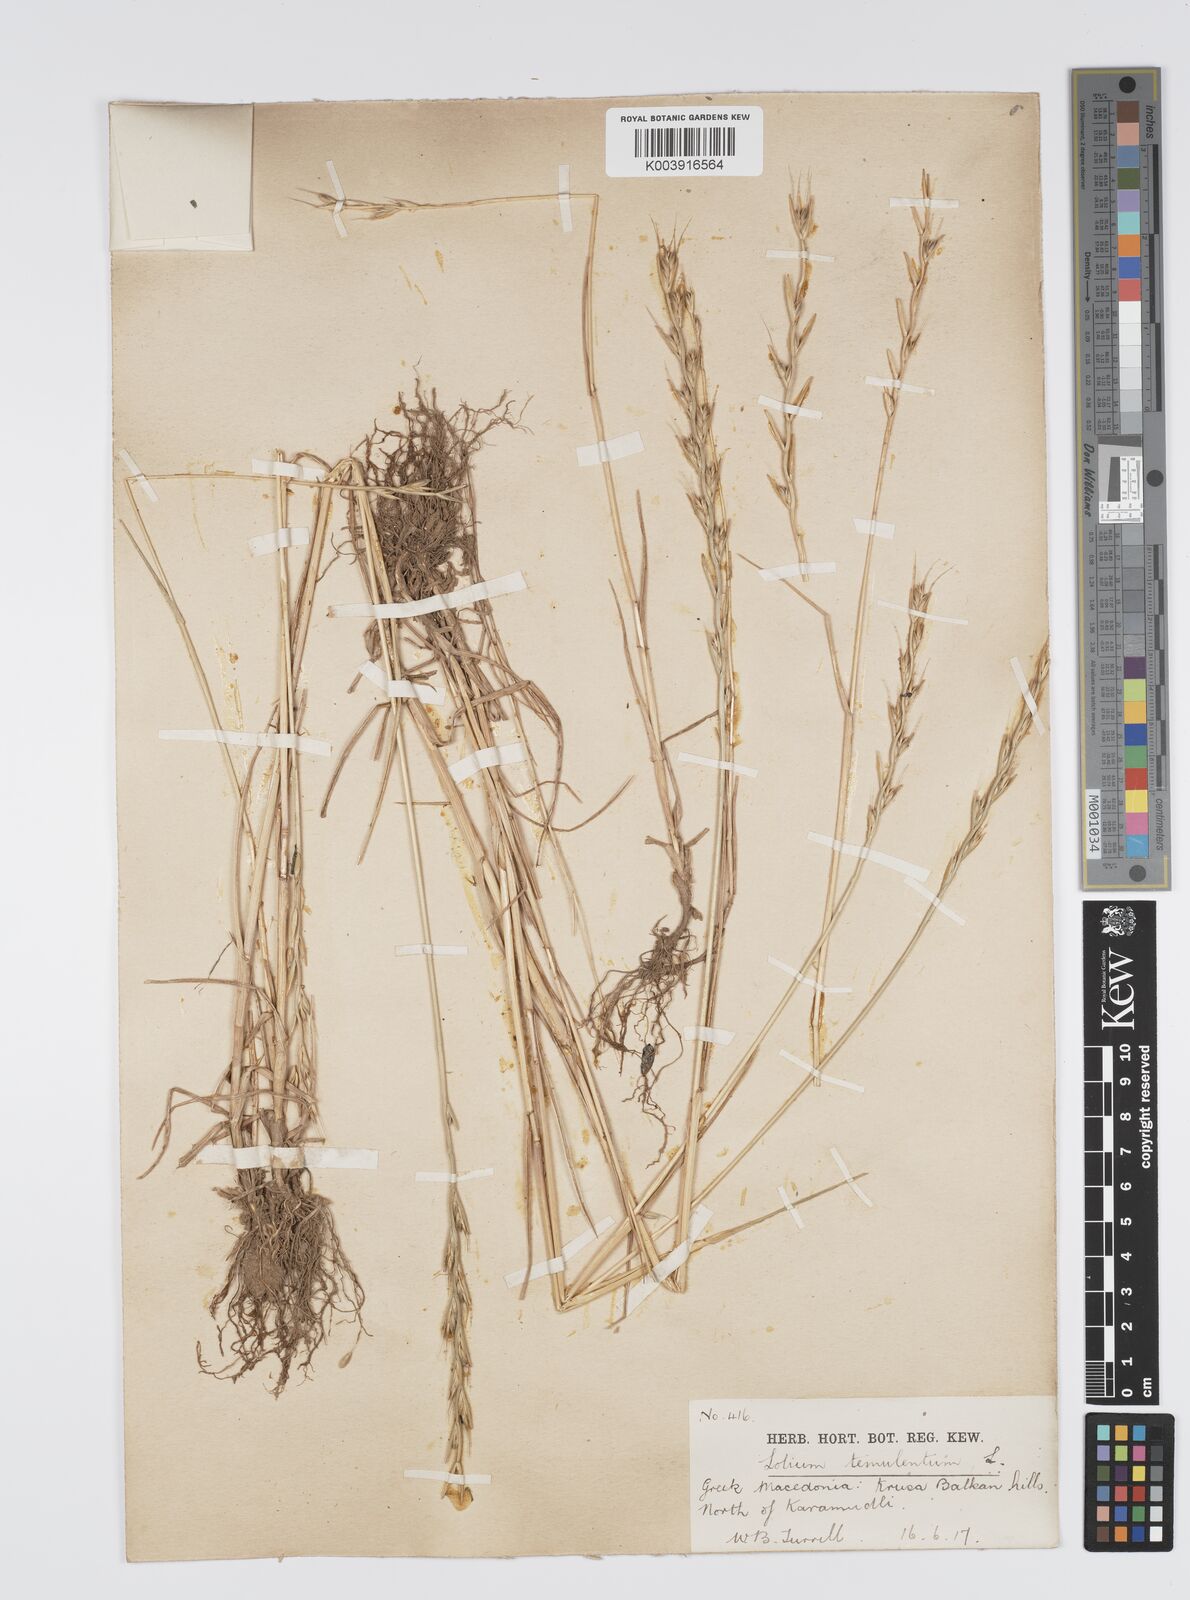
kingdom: Plantae
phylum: Tracheophyta
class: Liliopsida
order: Poales
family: Poaceae
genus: Lolium
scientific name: Lolium temulentum
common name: Darnel
